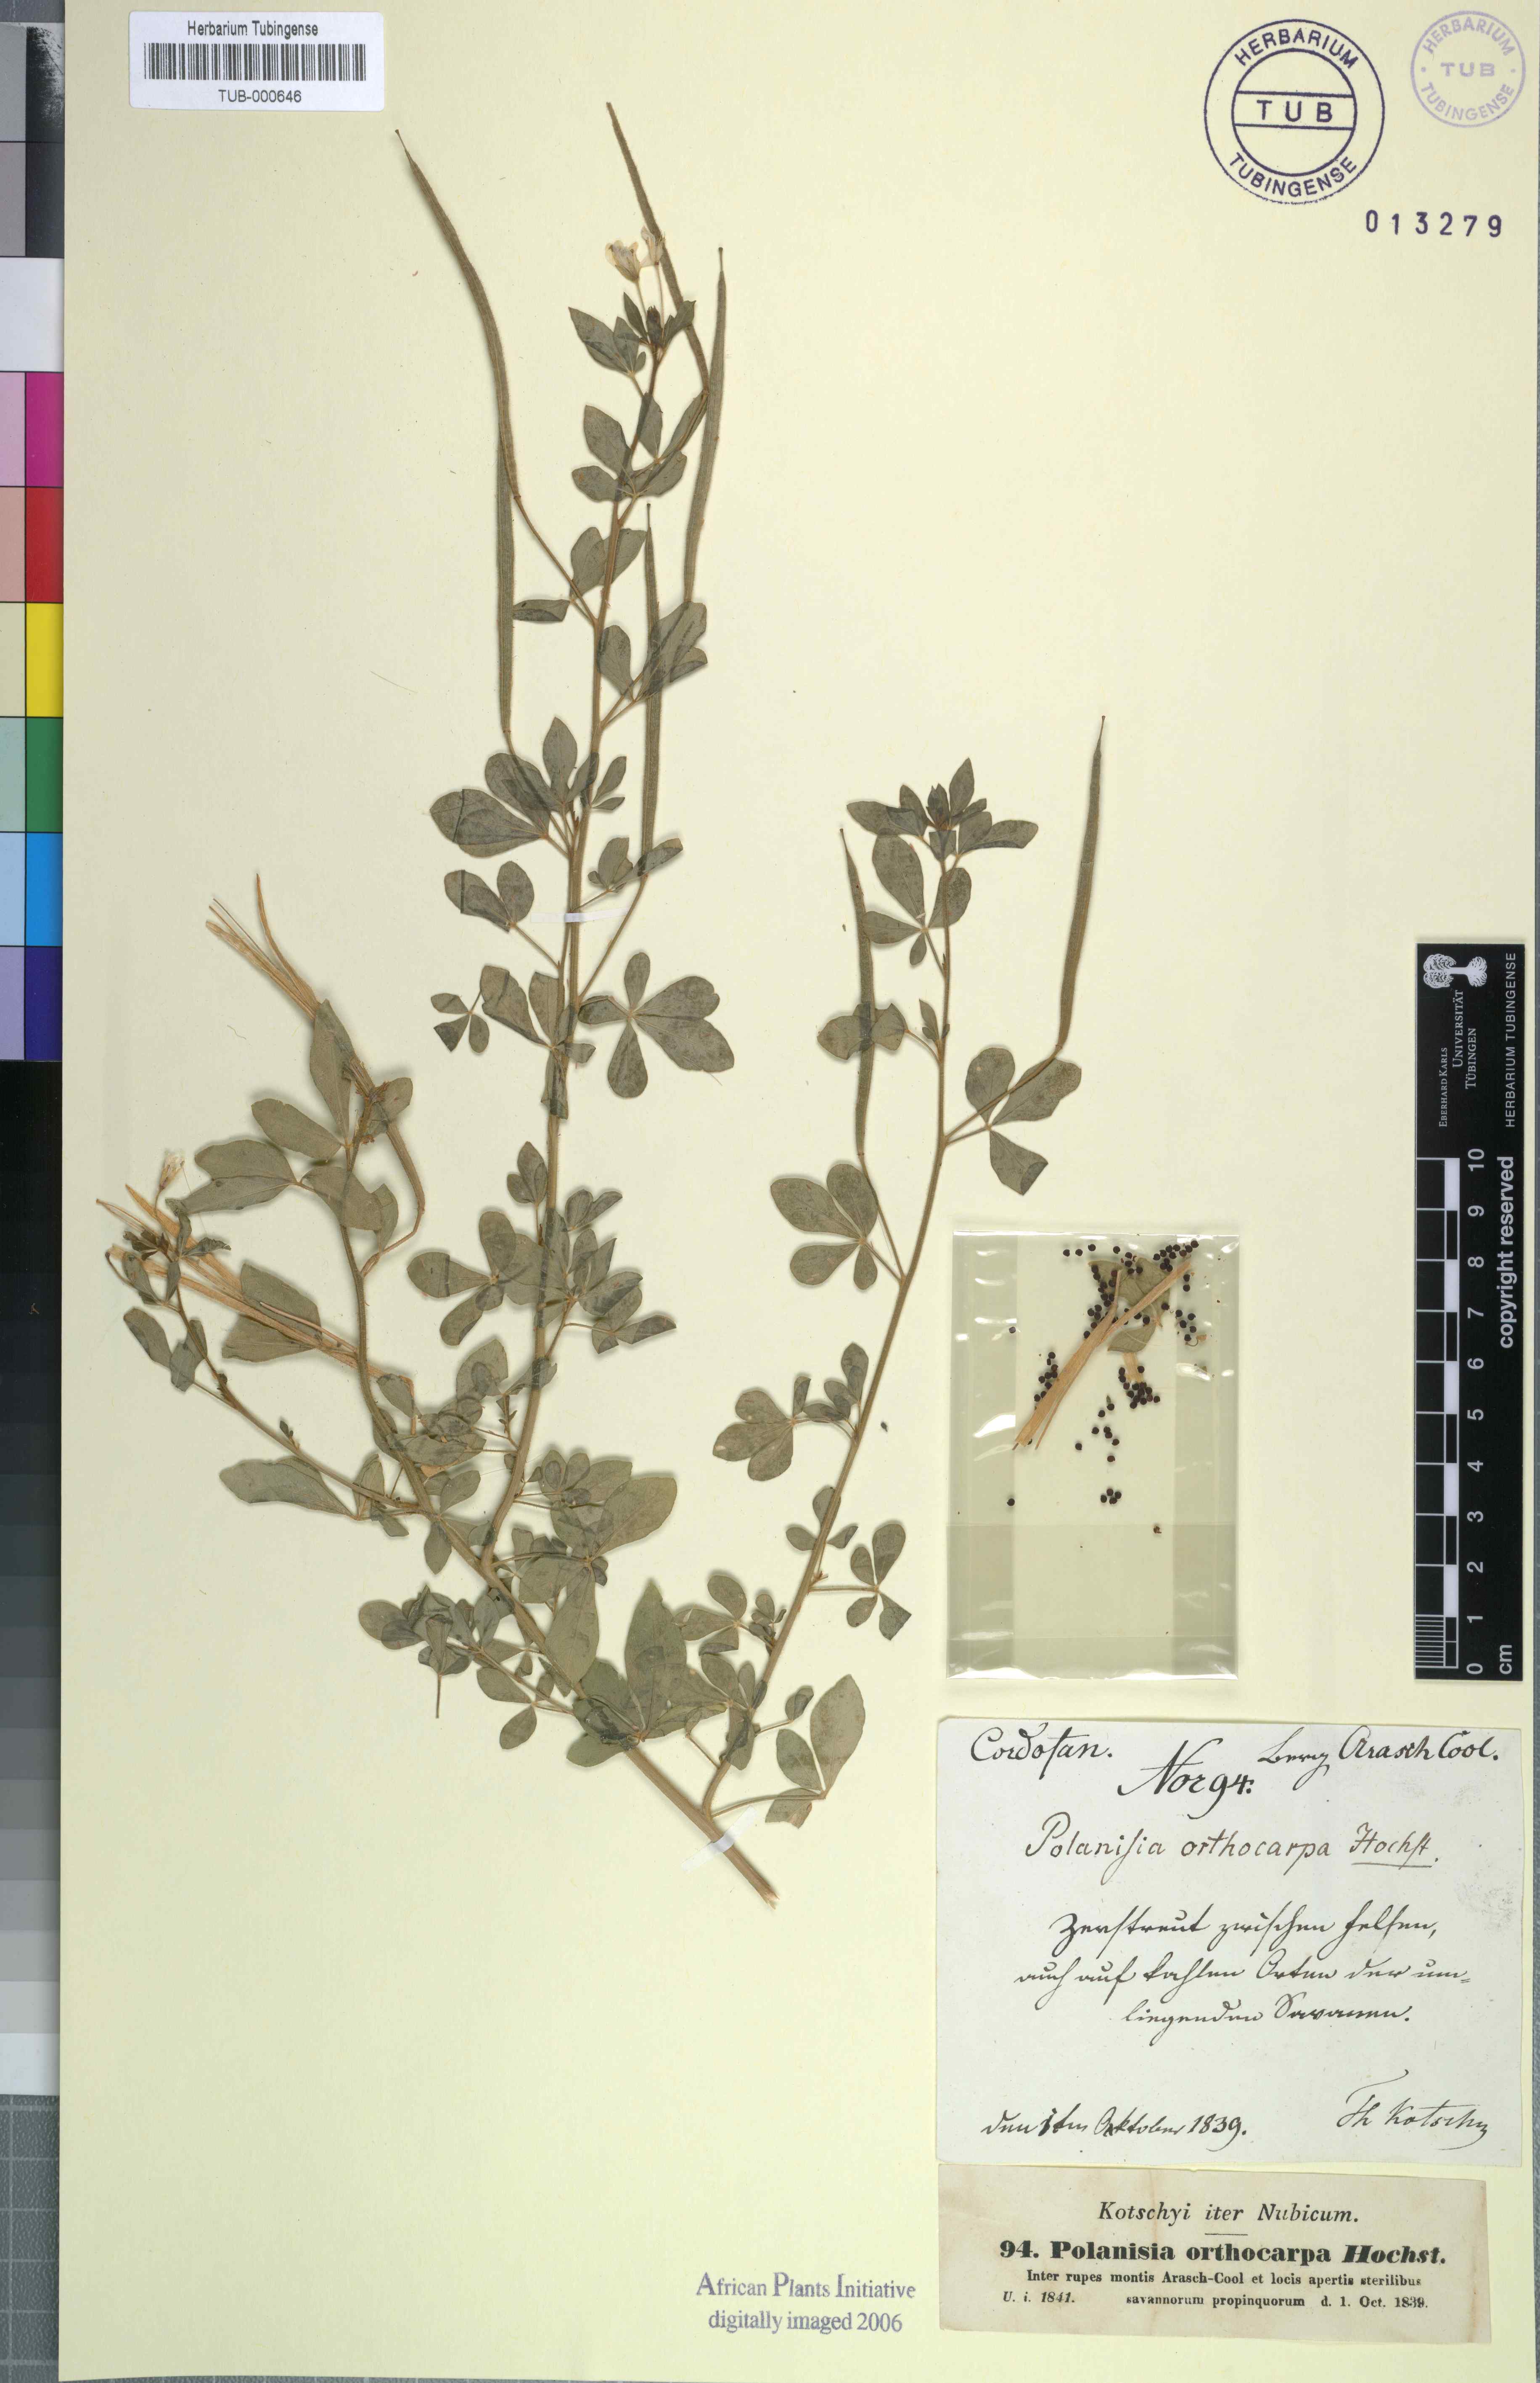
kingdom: Plantae
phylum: Tracheophyta
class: Magnoliopsida
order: Brassicales
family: Cleomaceae
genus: Arivela
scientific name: Arivela viscosa
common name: Asian spiderflower
